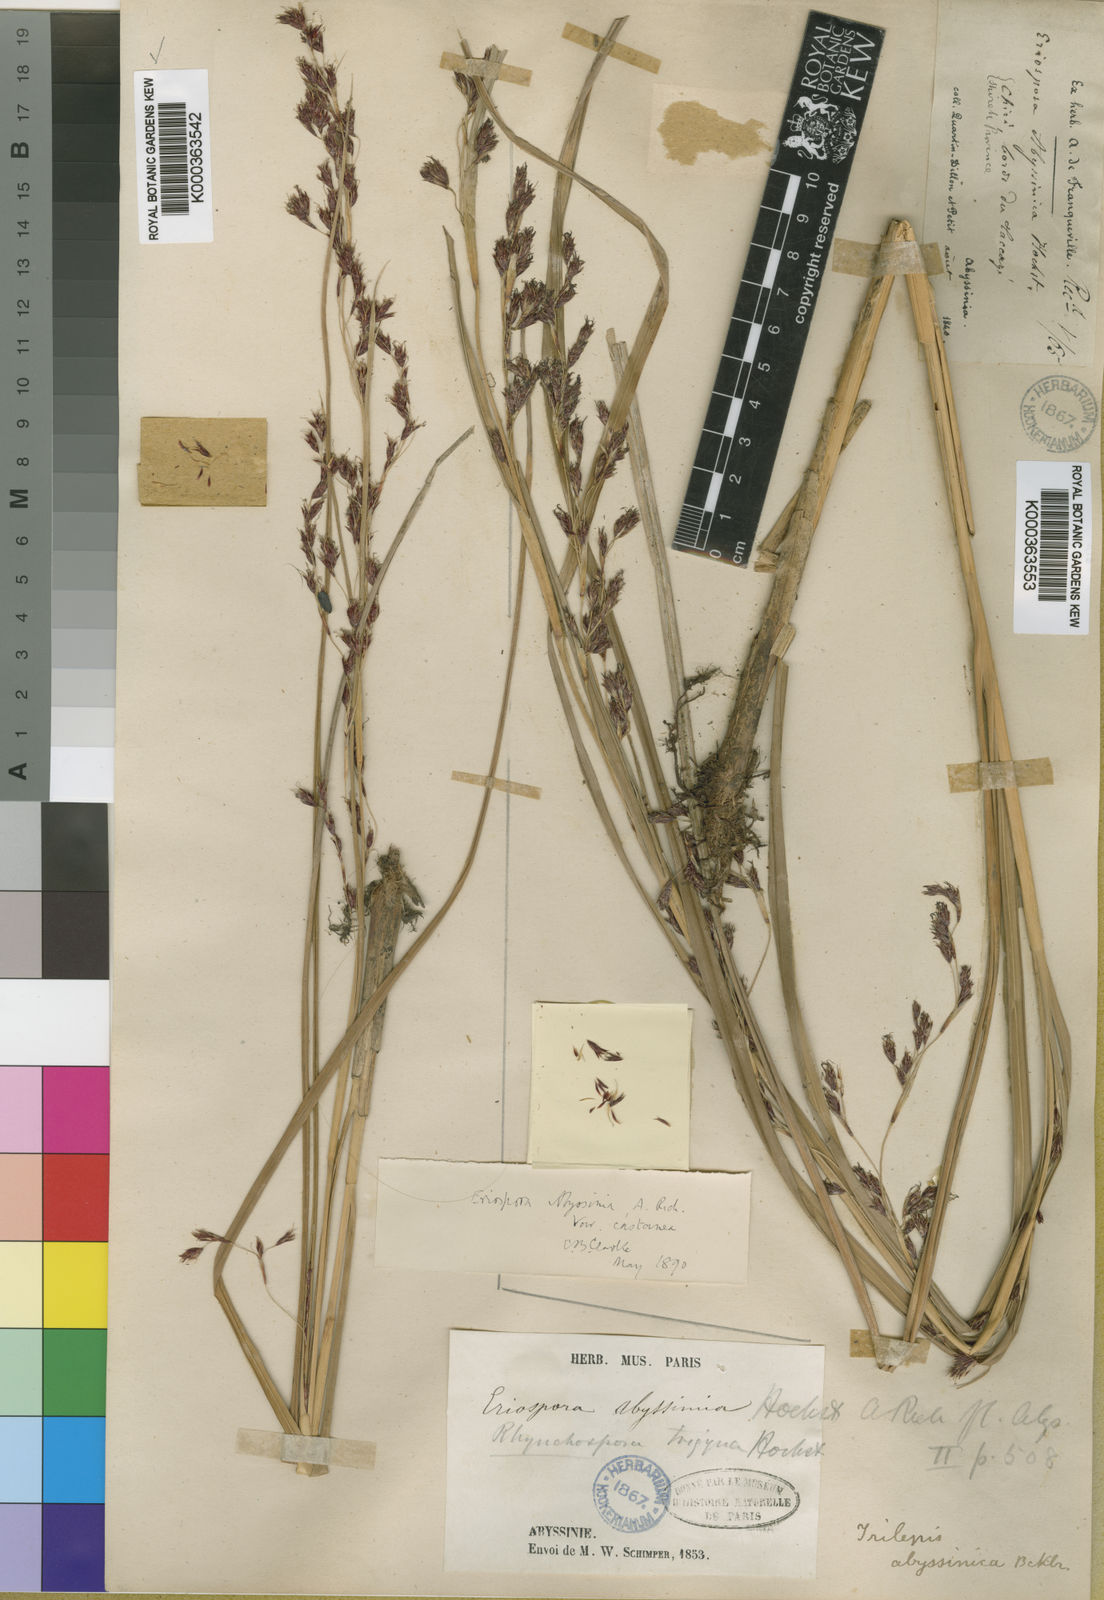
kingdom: Plantae
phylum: Tracheophyta
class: Liliopsida
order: Poales
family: Cyperaceae
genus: Coleochloa
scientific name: Coleochloa abyssinica
